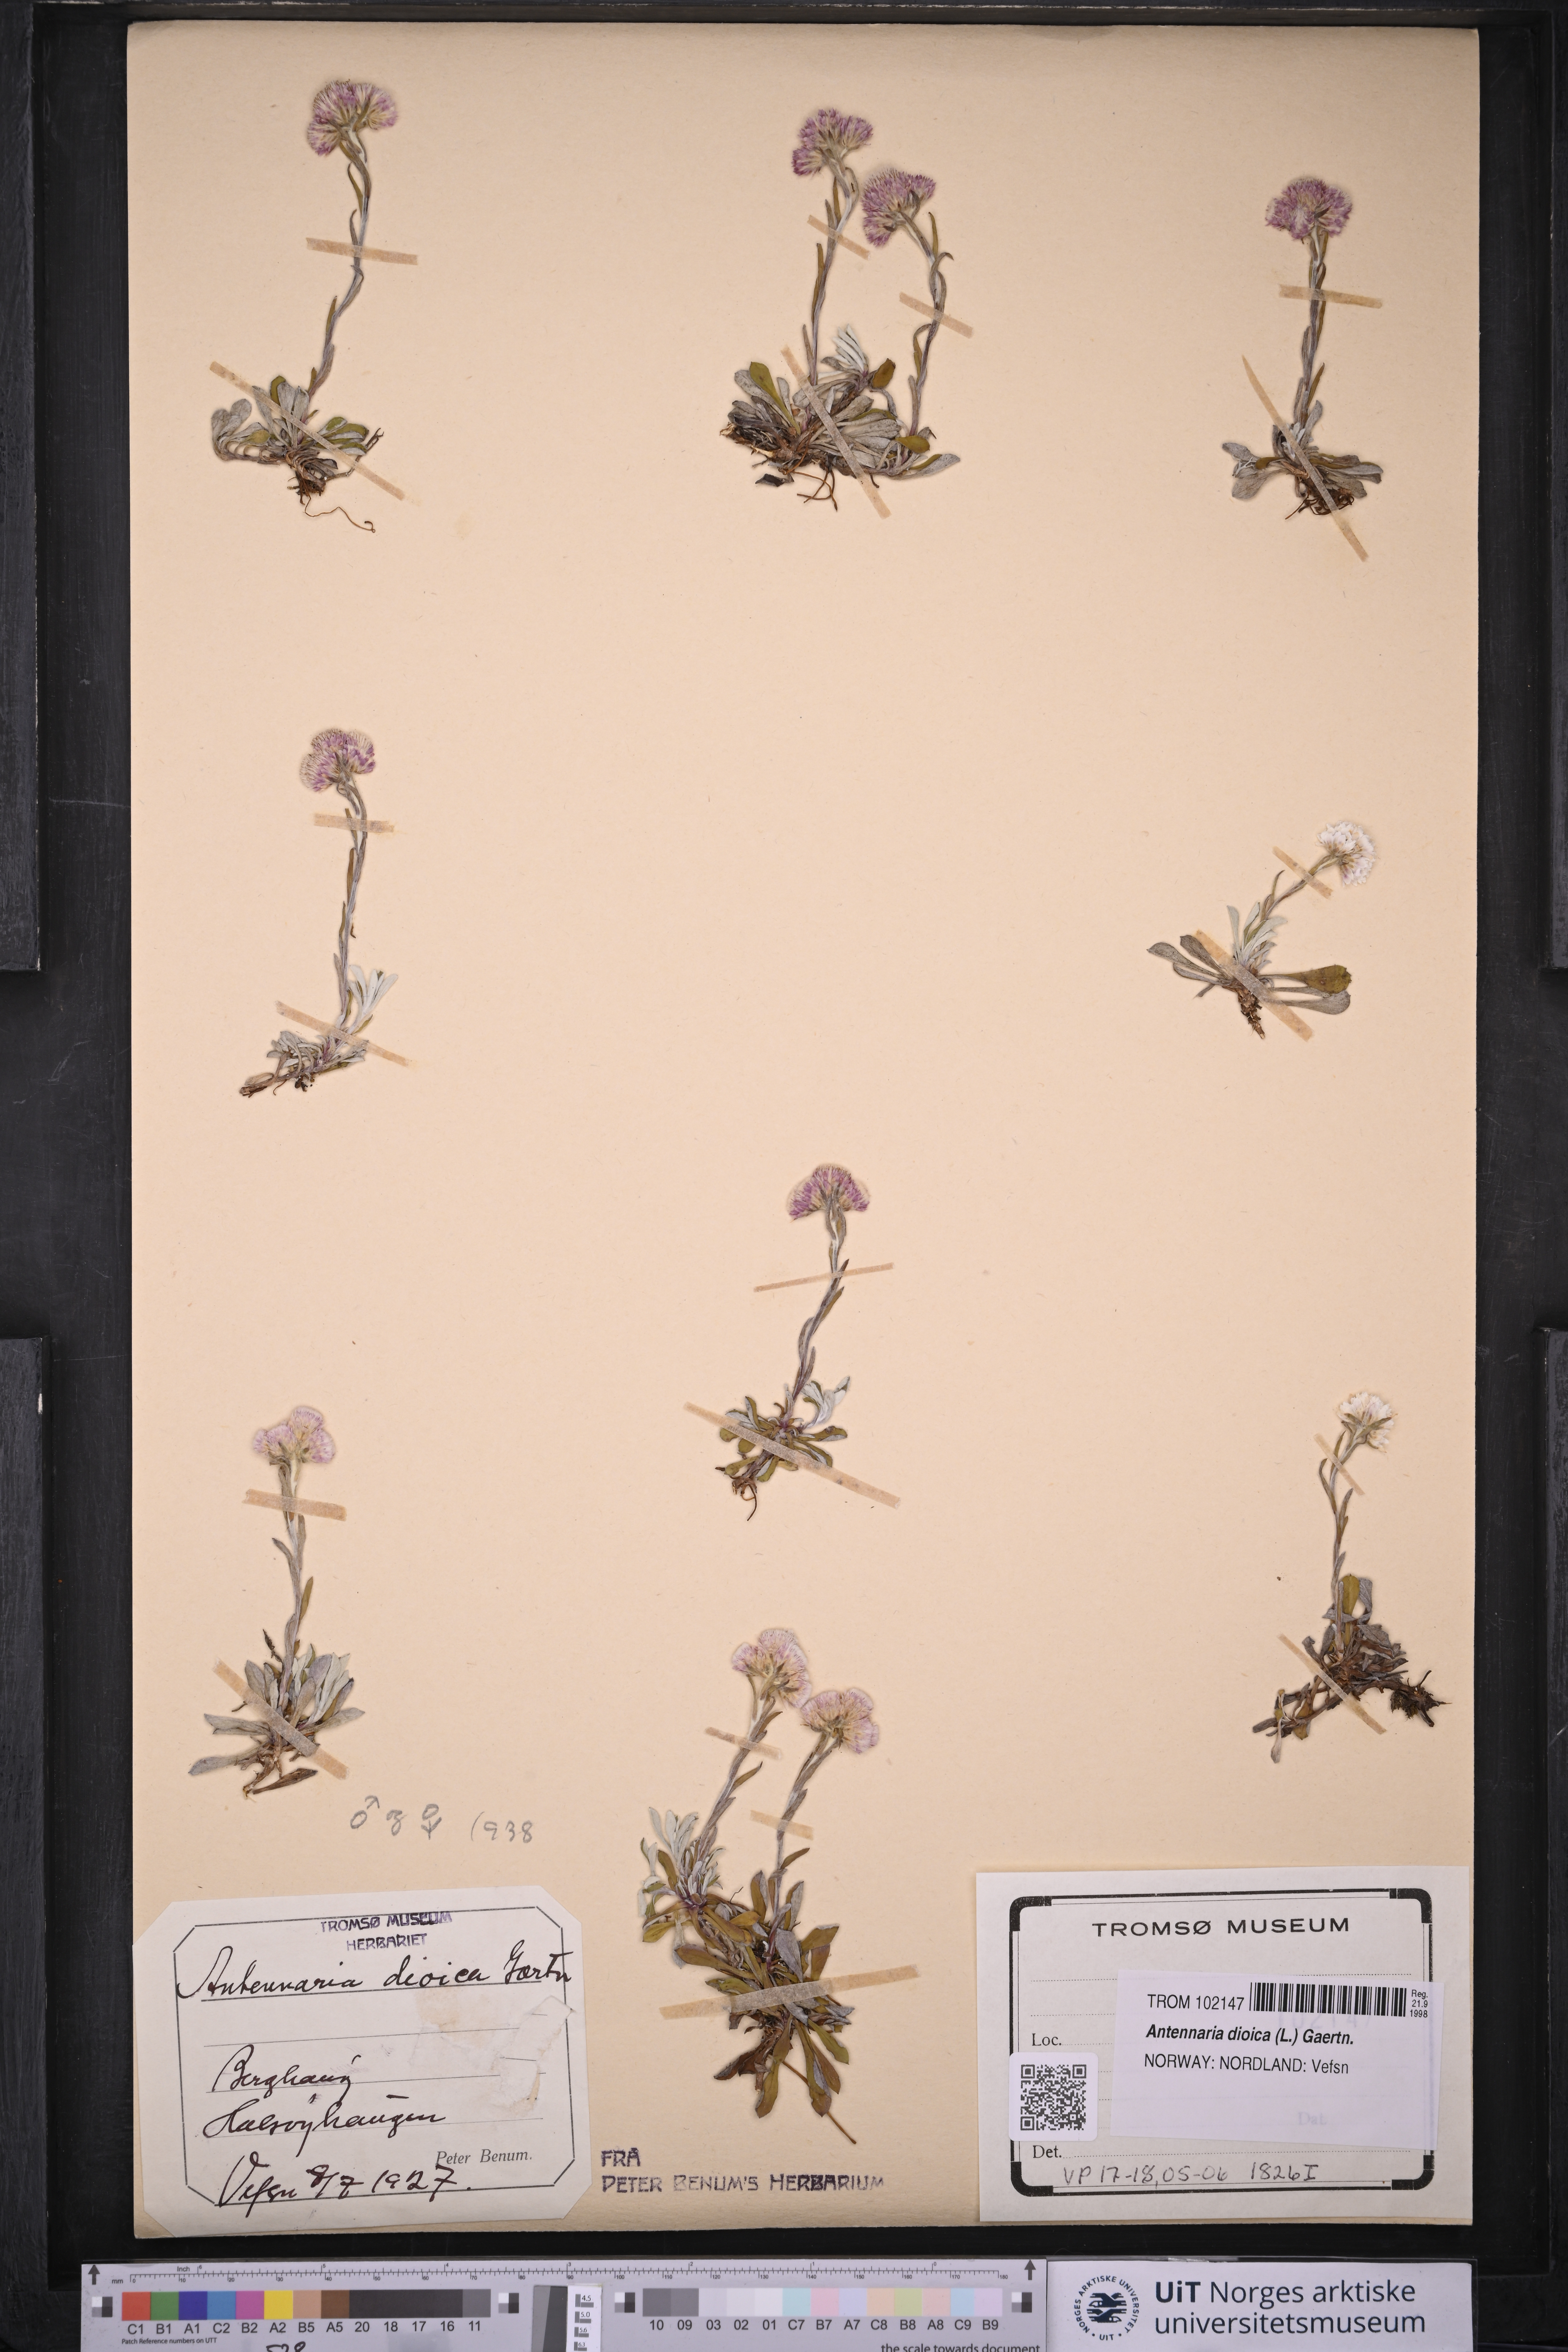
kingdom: Plantae
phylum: Tracheophyta
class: Magnoliopsida
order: Asterales
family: Asteraceae
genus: Antennaria
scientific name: Antennaria dioica
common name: Mountain everlasting
